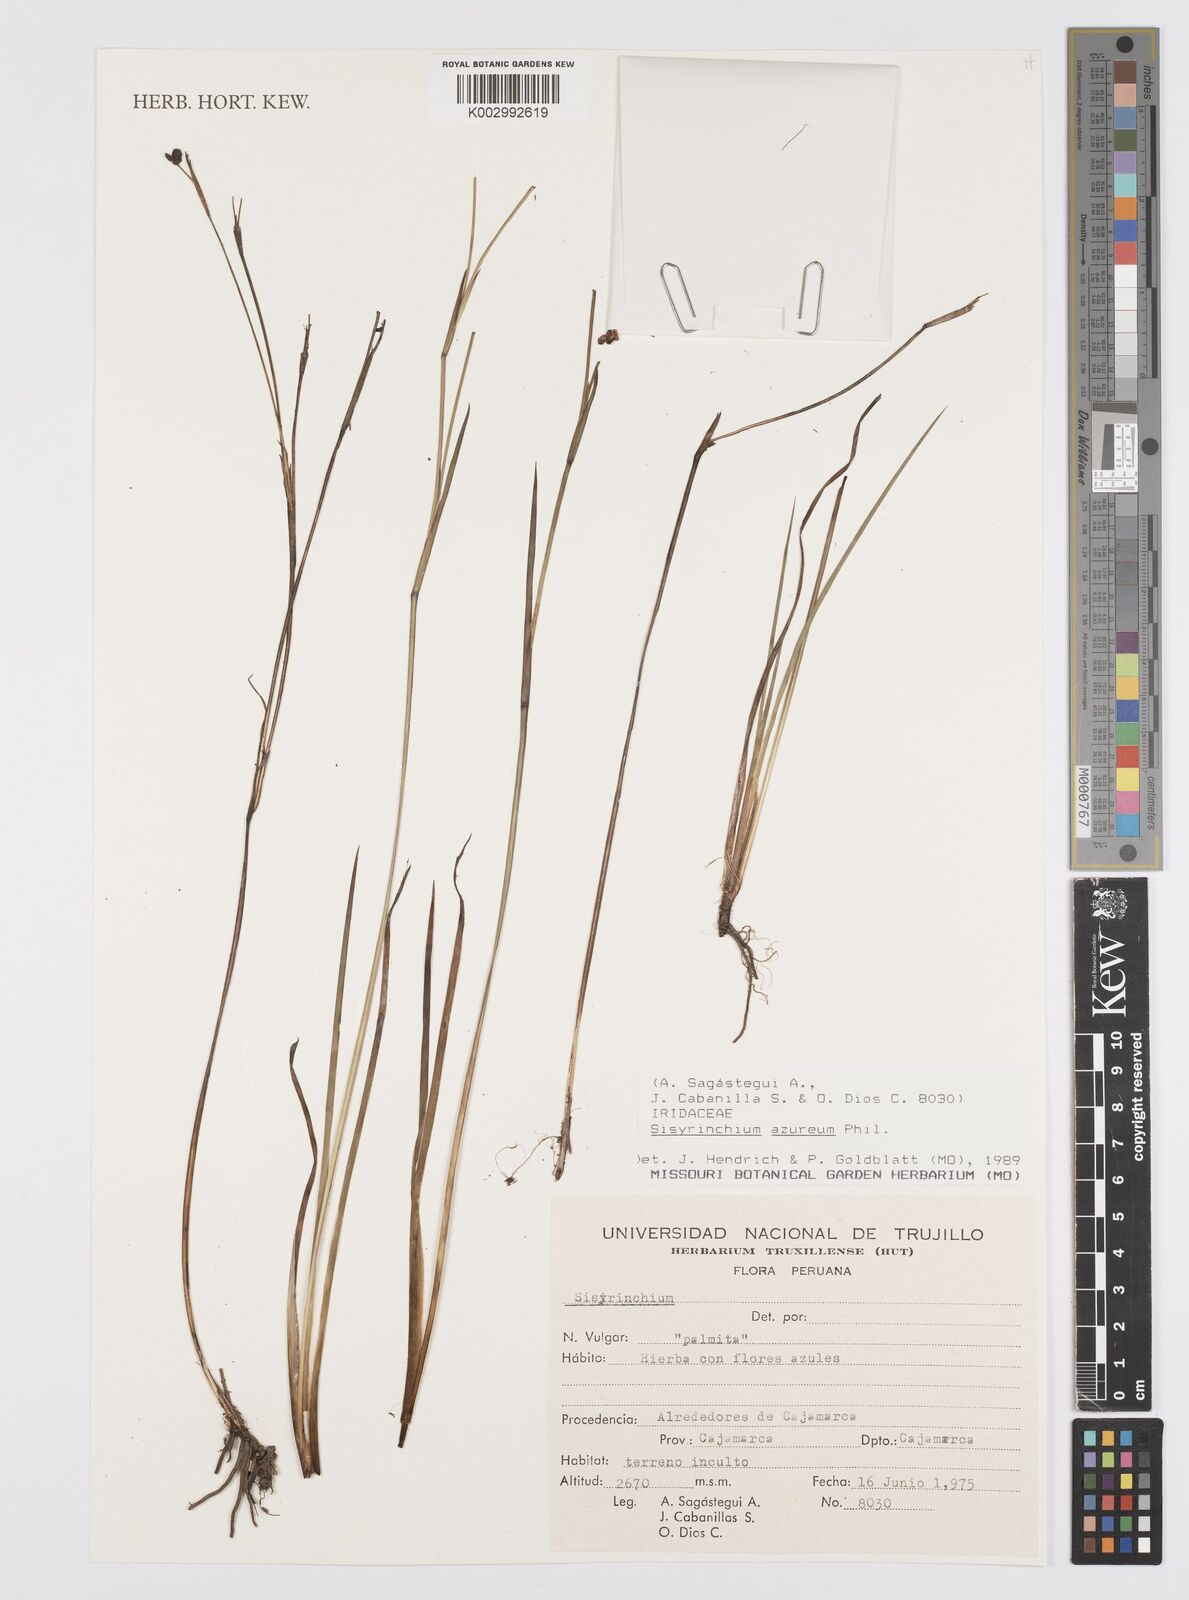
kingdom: Plantae
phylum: Tracheophyta
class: Liliopsida
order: Asparagales
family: Iridaceae
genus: Sisyrinchium
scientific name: Sisyrinchium azureum
